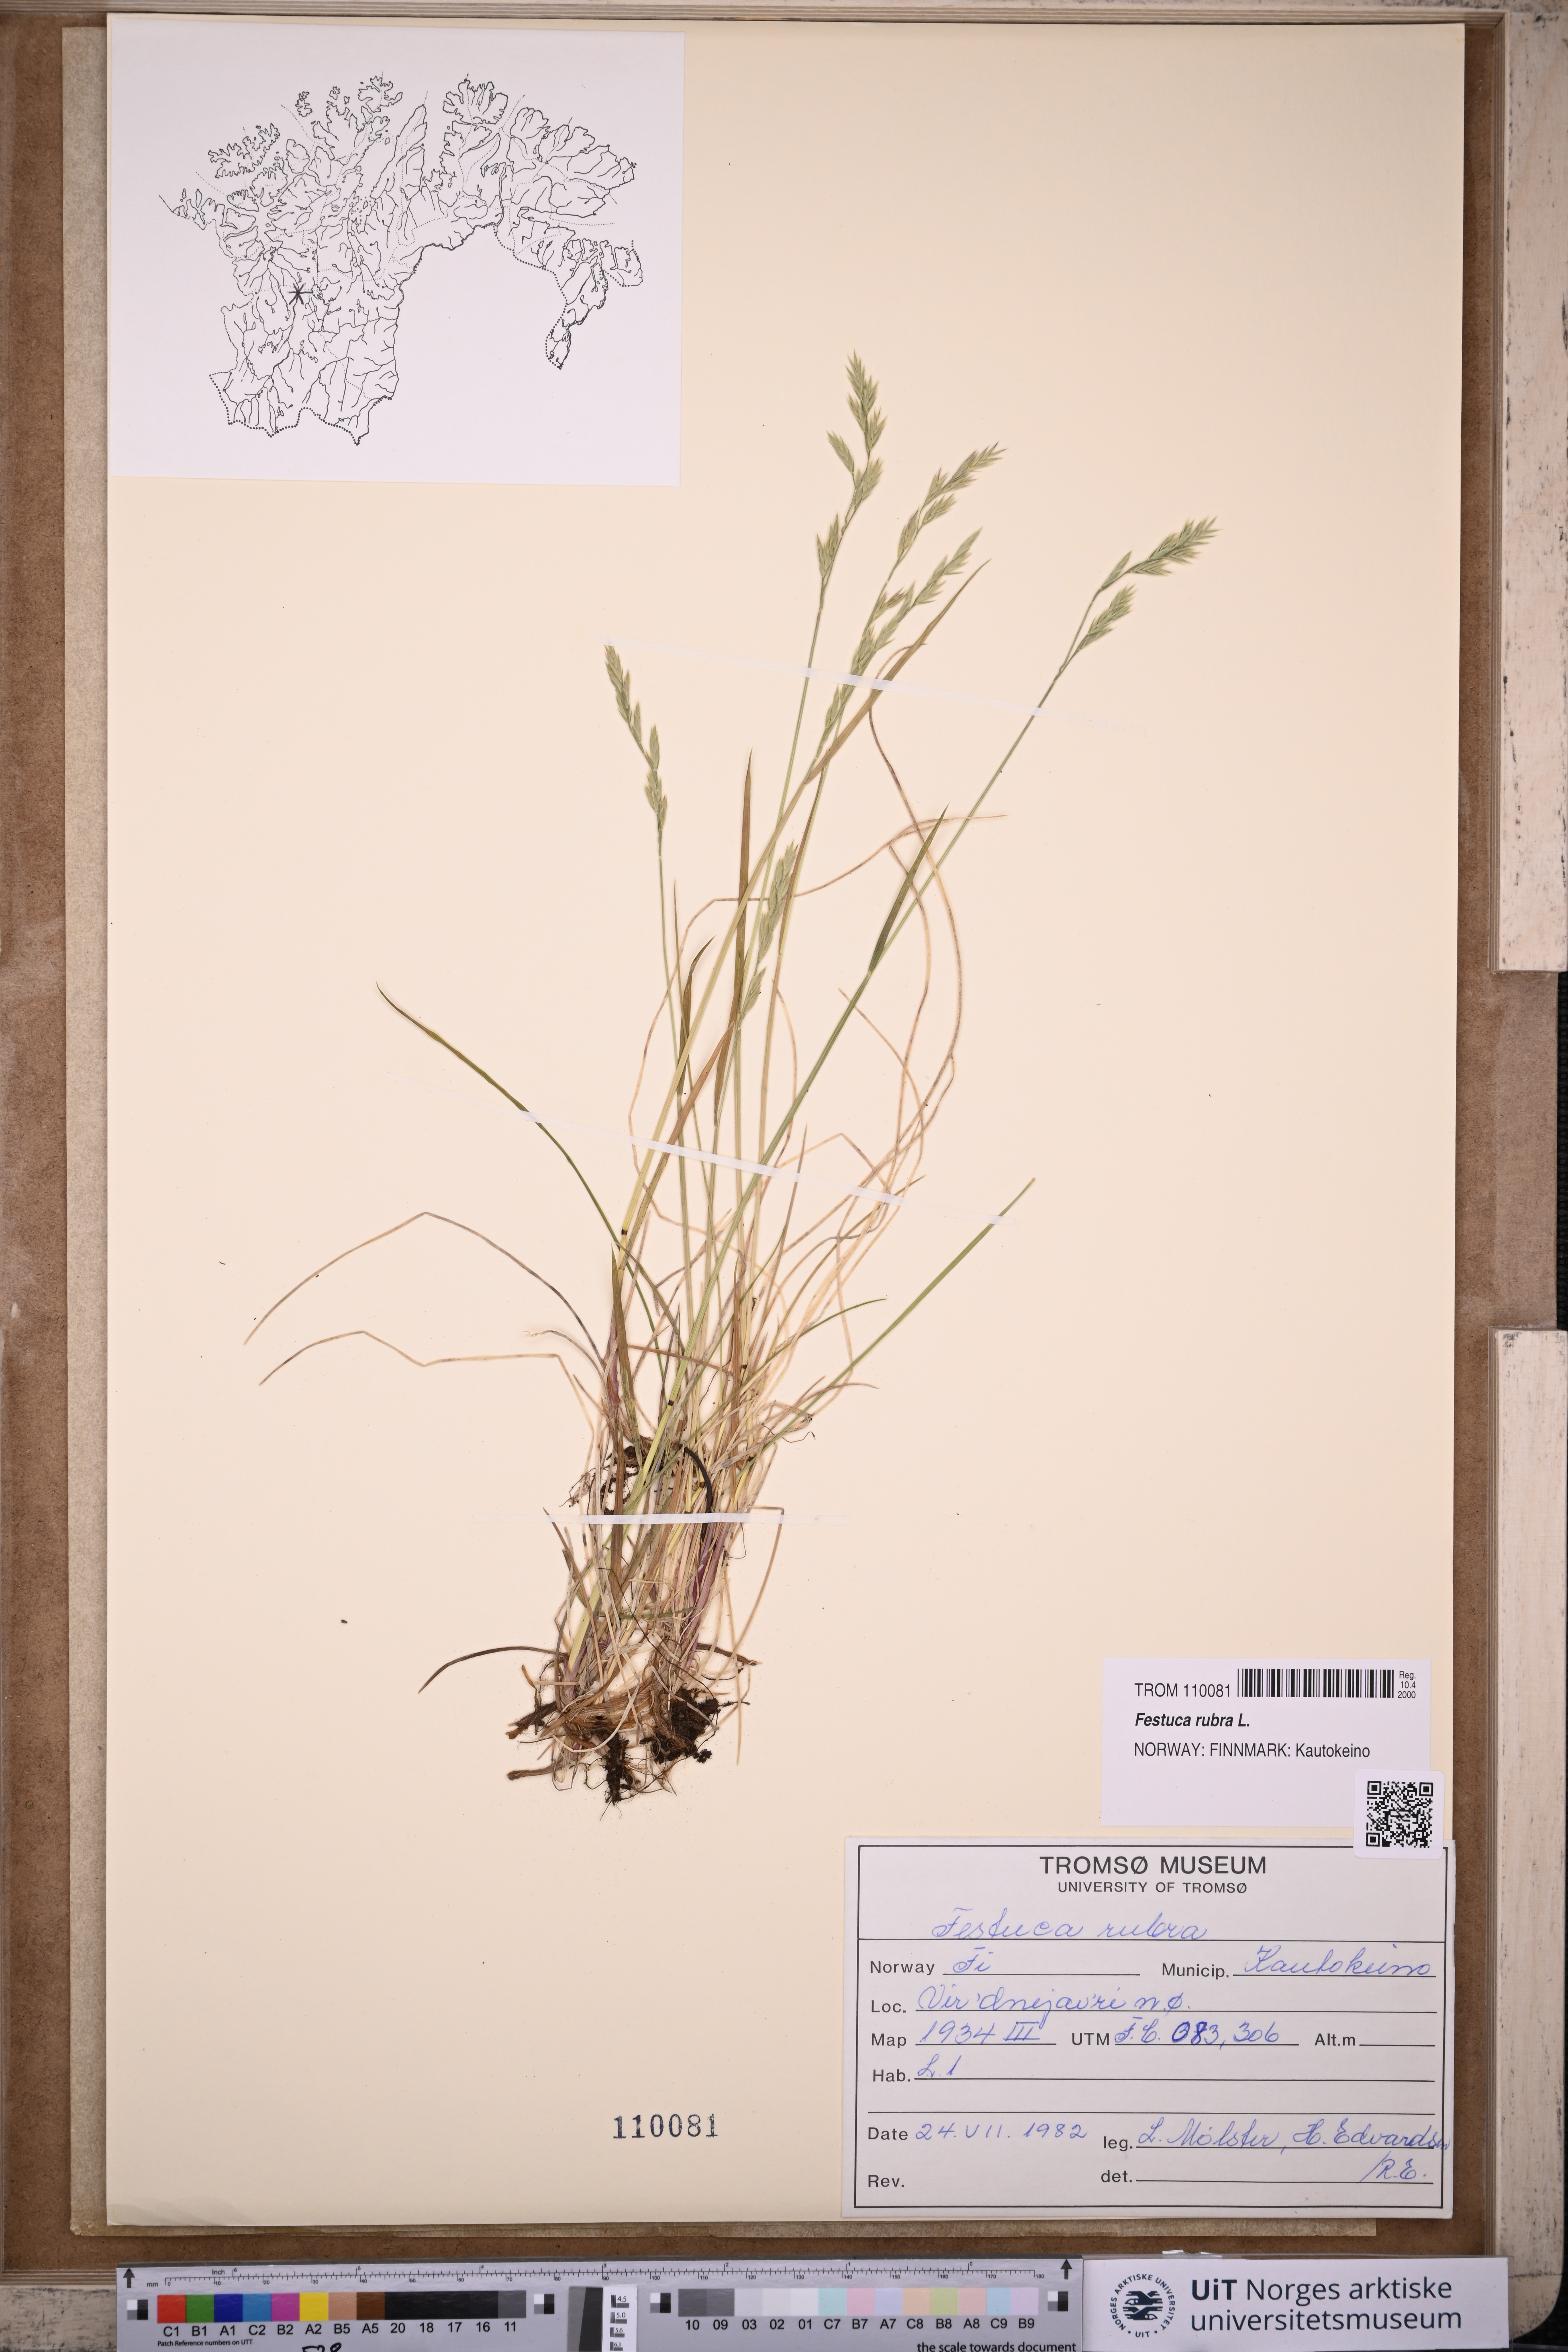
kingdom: Plantae
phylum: Tracheophyta
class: Liliopsida
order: Poales
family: Poaceae
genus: Festuca
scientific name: Festuca rubra
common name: Red fescue
